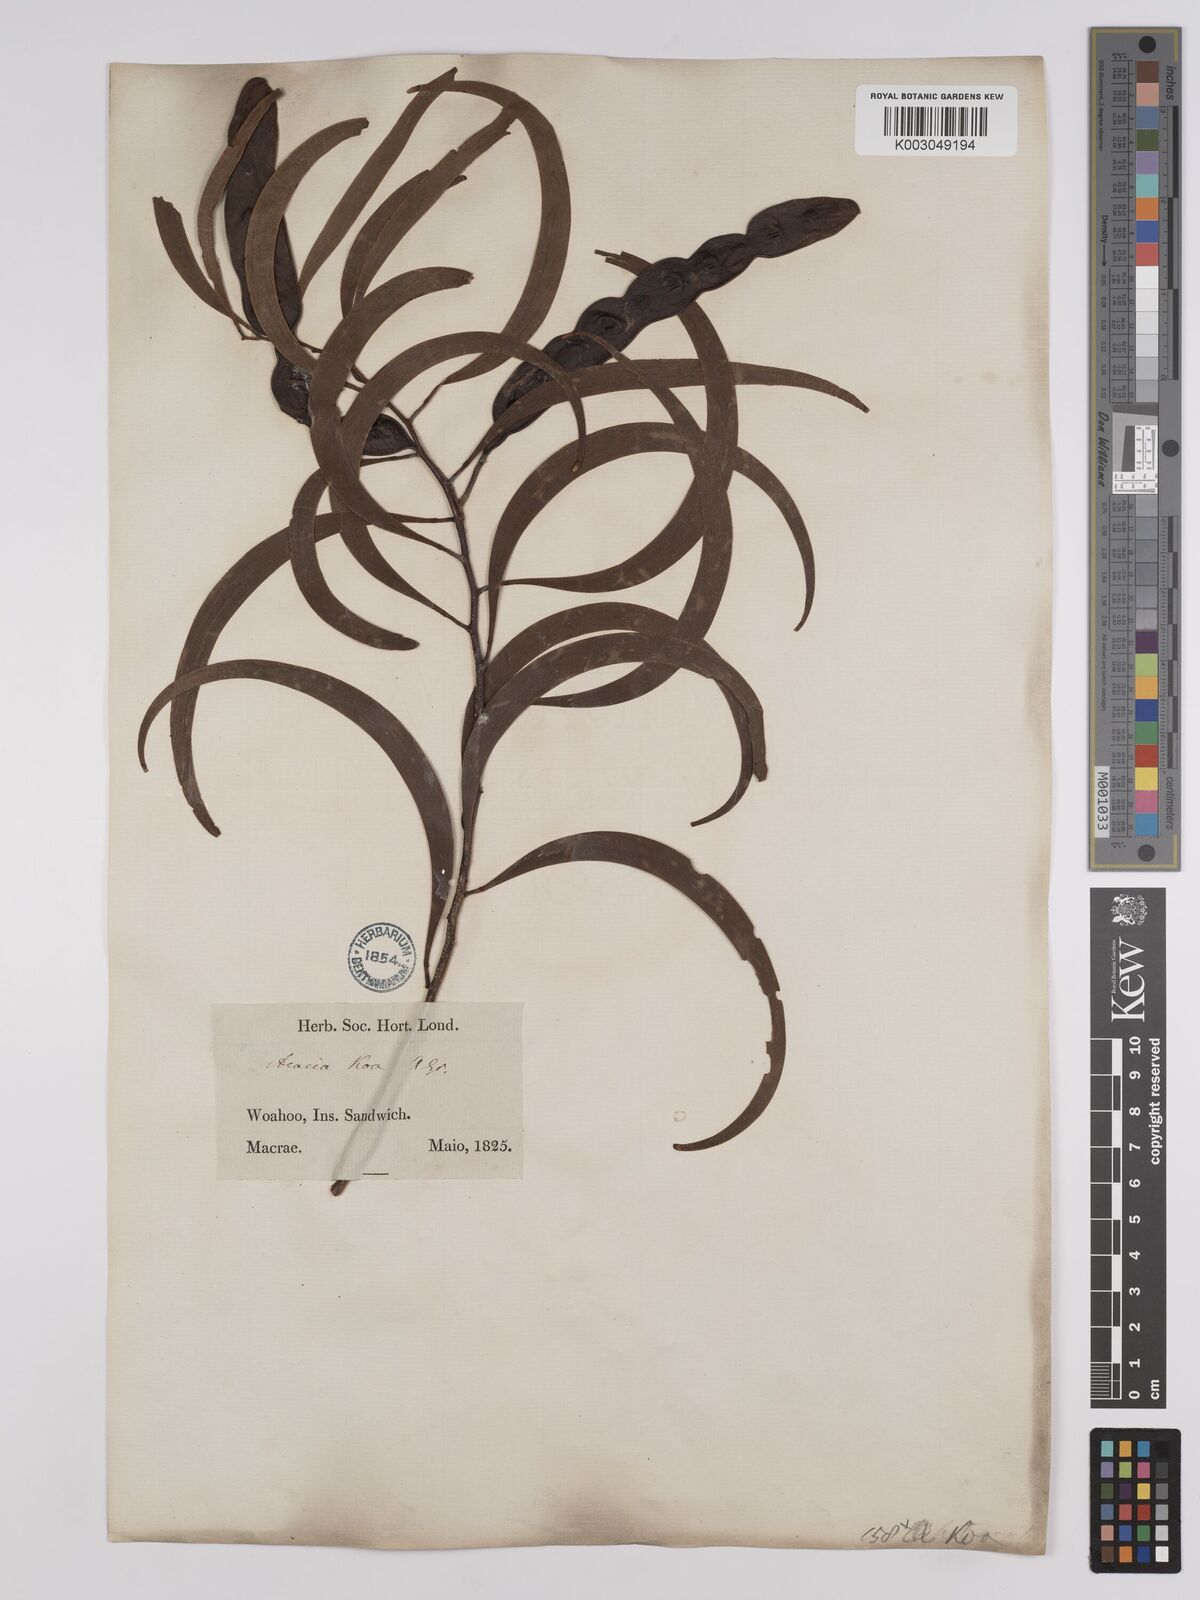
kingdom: Plantae
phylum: Tracheophyta
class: Magnoliopsida
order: Fabales
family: Fabaceae
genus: Acacia
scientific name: Acacia koa
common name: Gray koa
